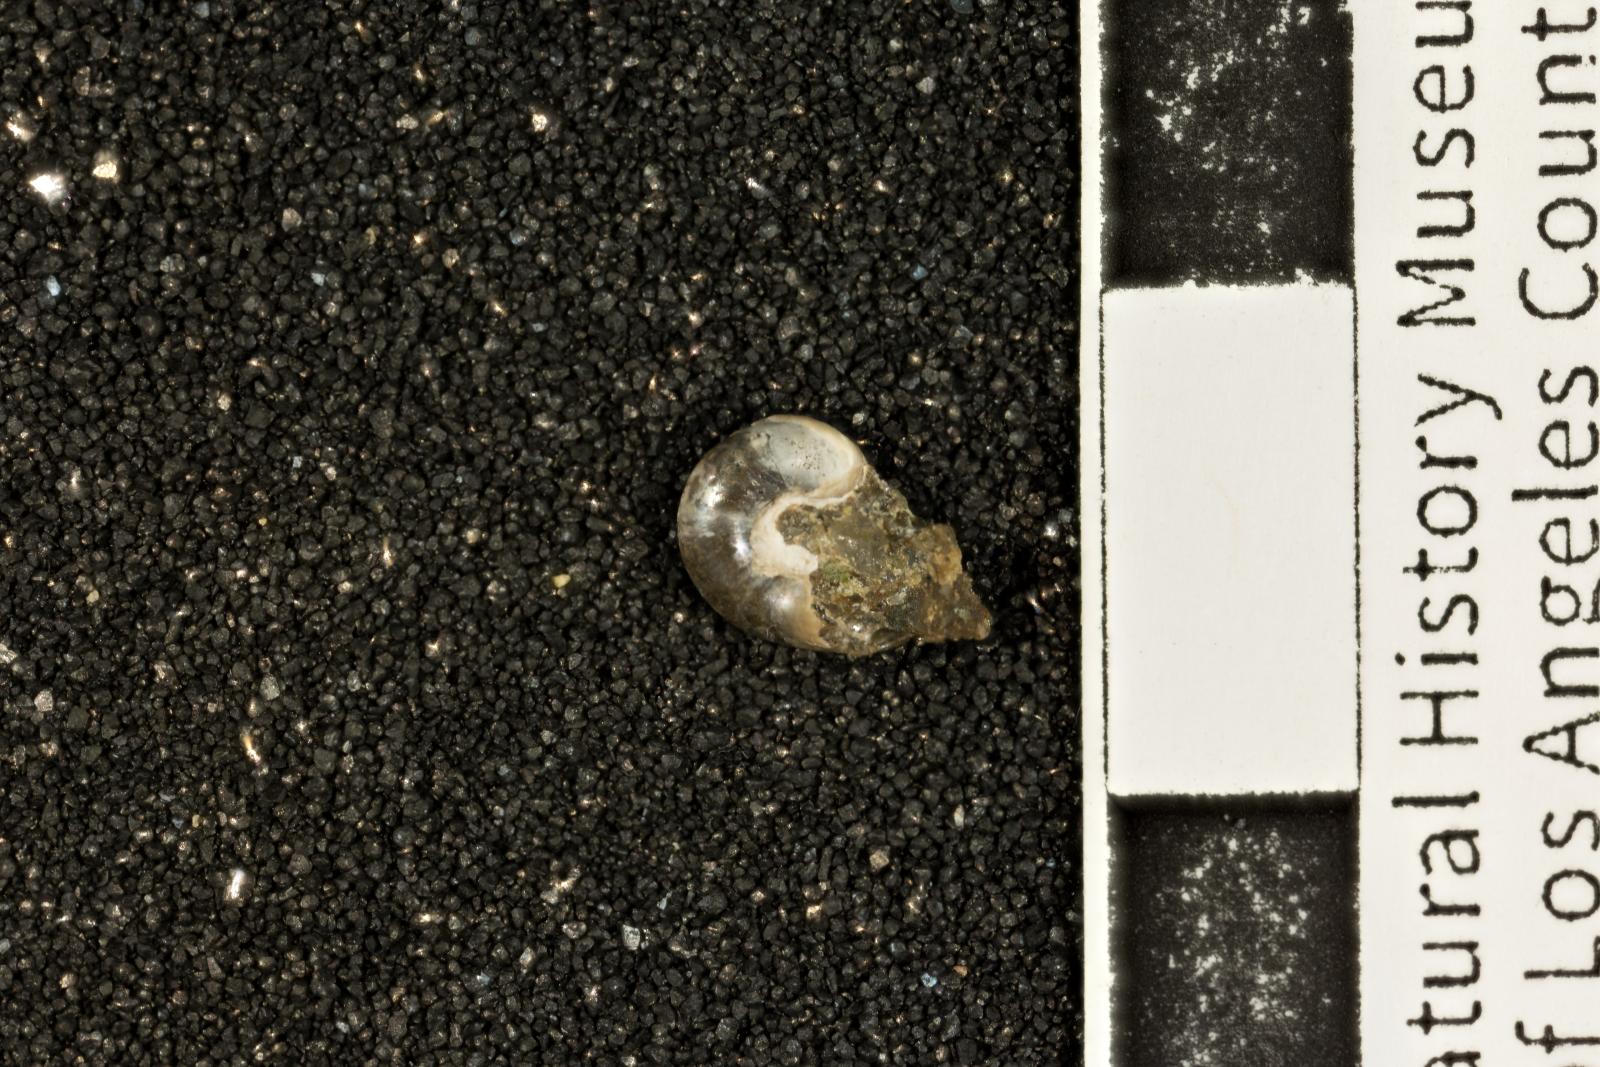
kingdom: Animalia
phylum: Mollusca
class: Gastropoda
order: Trochida
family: Margaritidae
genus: Afrollonia
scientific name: Afrollonia
